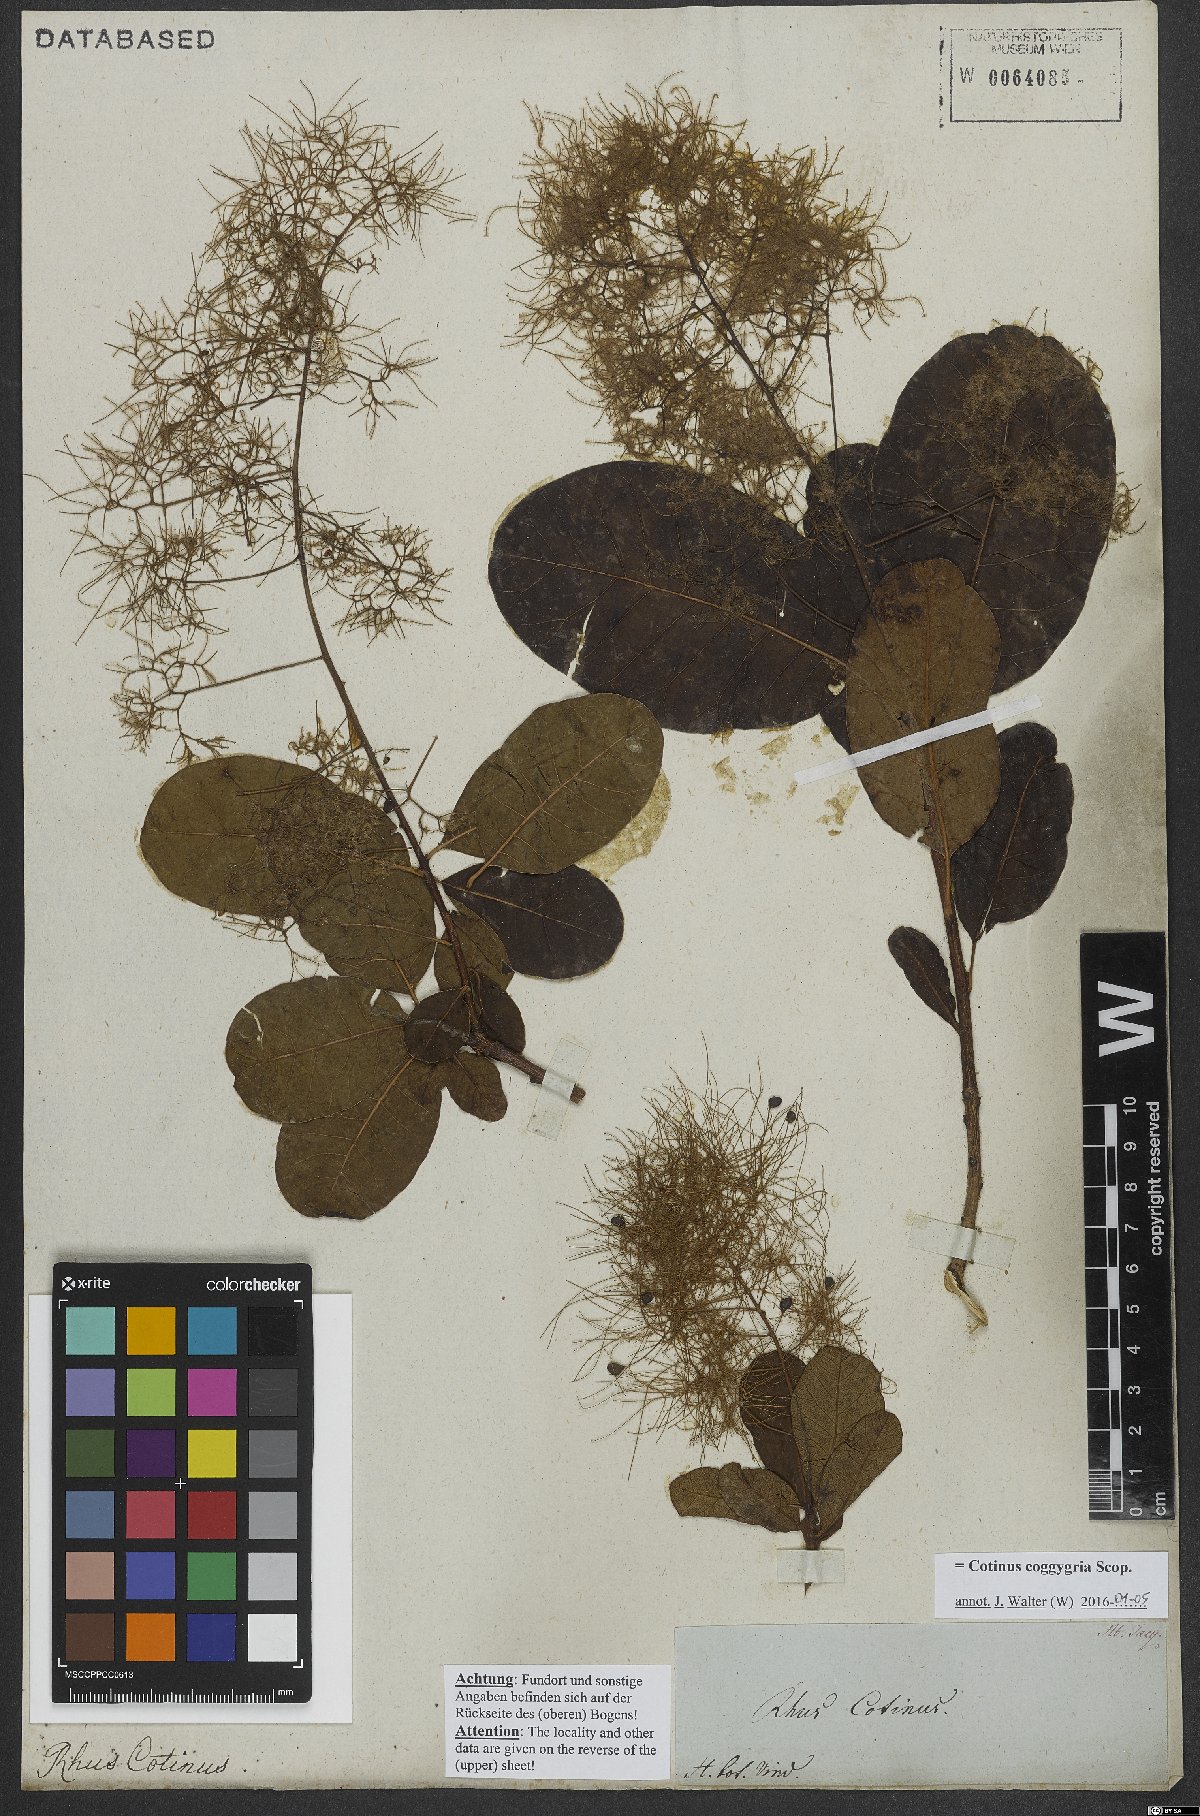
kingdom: Plantae
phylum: Tracheophyta
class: Magnoliopsida
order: Sapindales
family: Anacardiaceae
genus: Cotinus
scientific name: Cotinus coggygria
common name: Smoke-tree
